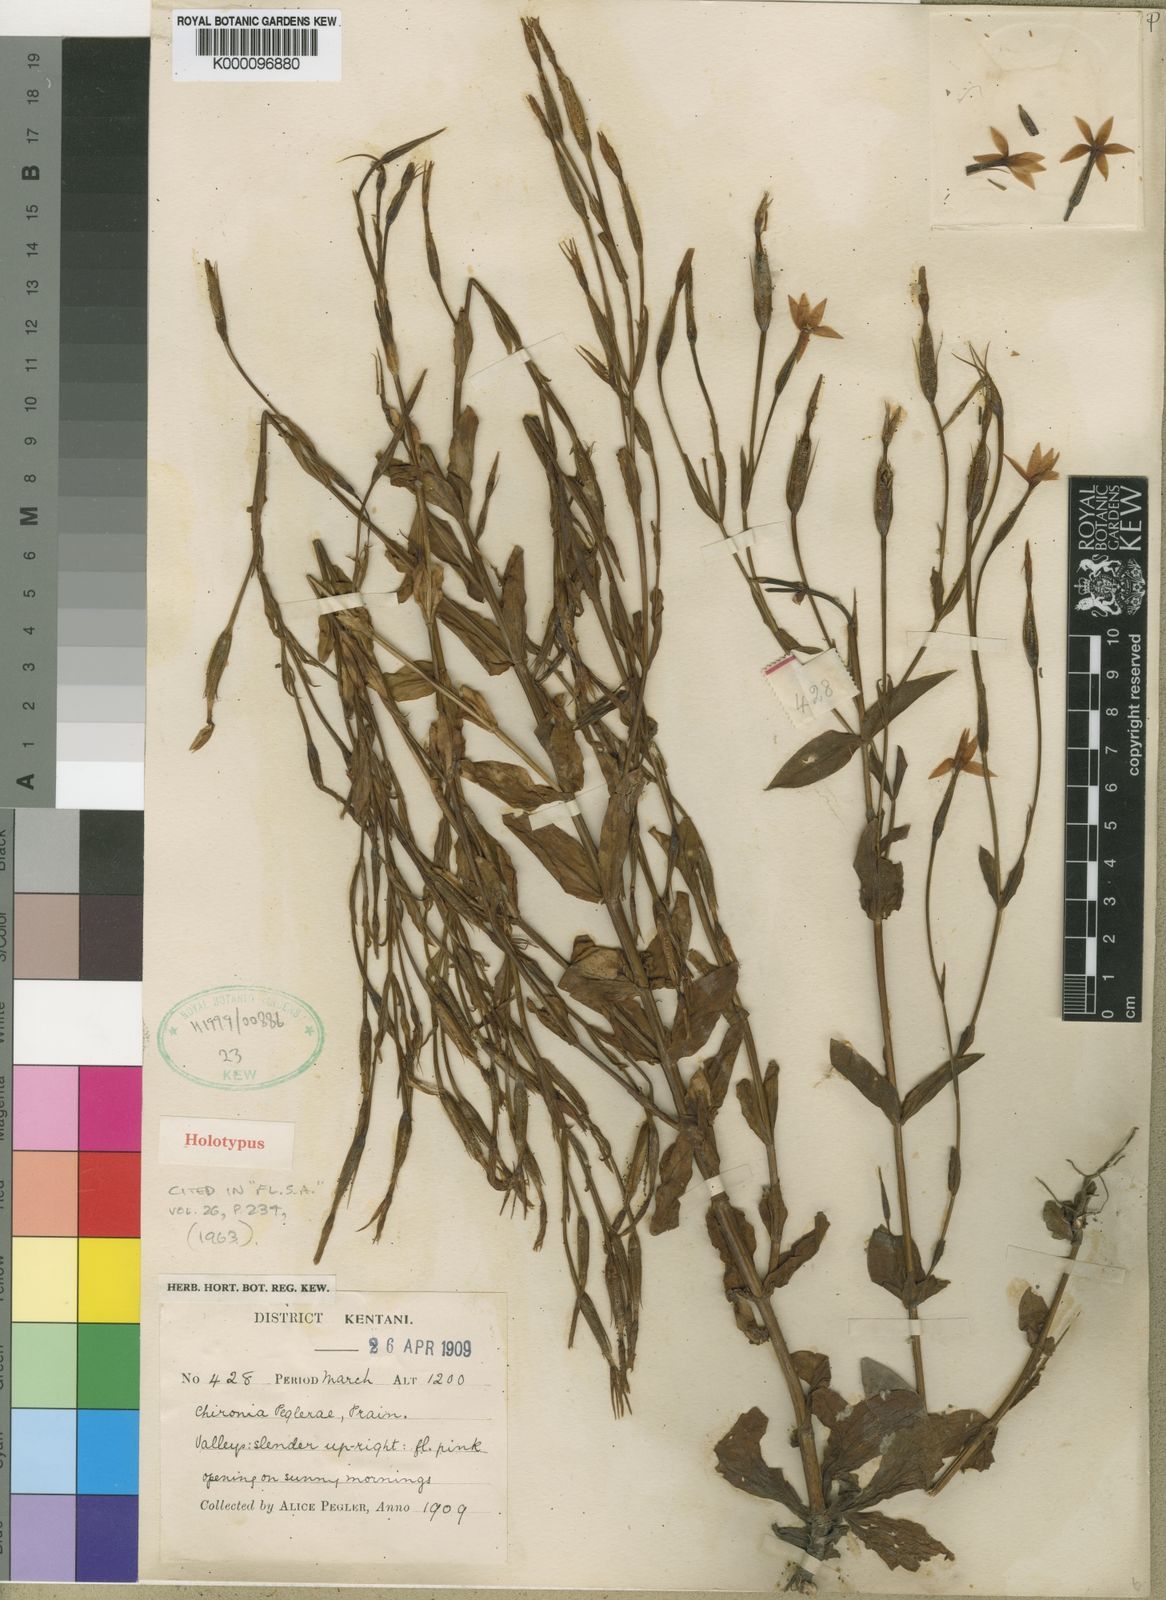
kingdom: Plantae
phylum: Tracheophyta
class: Magnoliopsida
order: Gentianales
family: Gentianaceae
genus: Chironia
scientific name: Chironia peglerae
